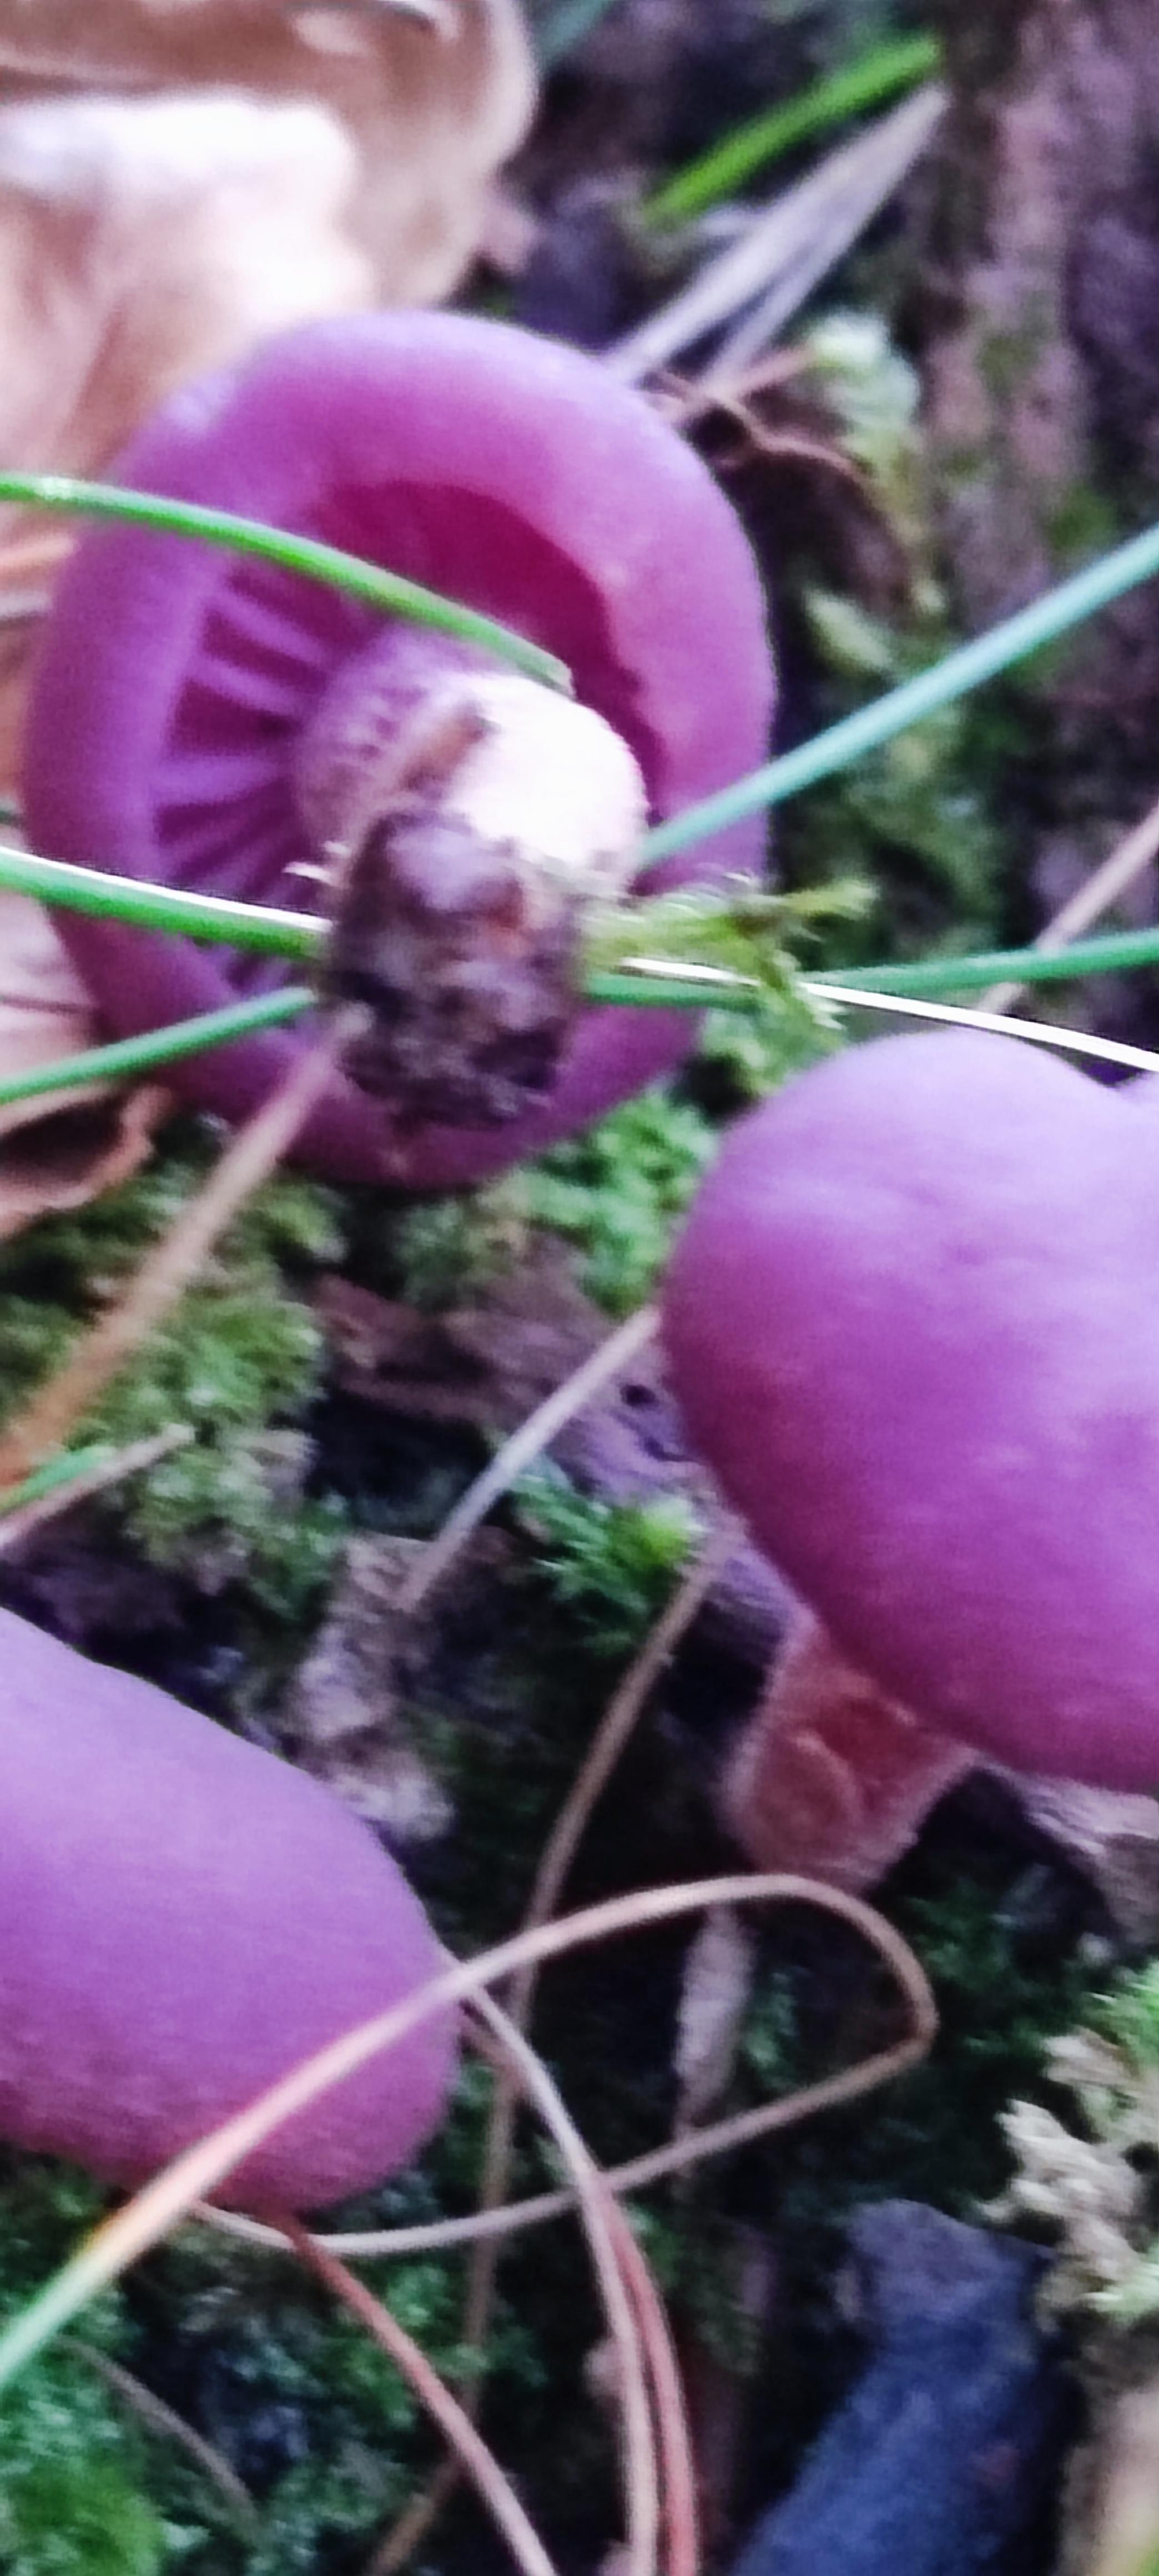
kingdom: Fungi
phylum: Basidiomycota
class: Agaricomycetes
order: Agaricales
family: Hydnangiaceae
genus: Laccaria
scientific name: Laccaria amethystina
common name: violet ametysthat
